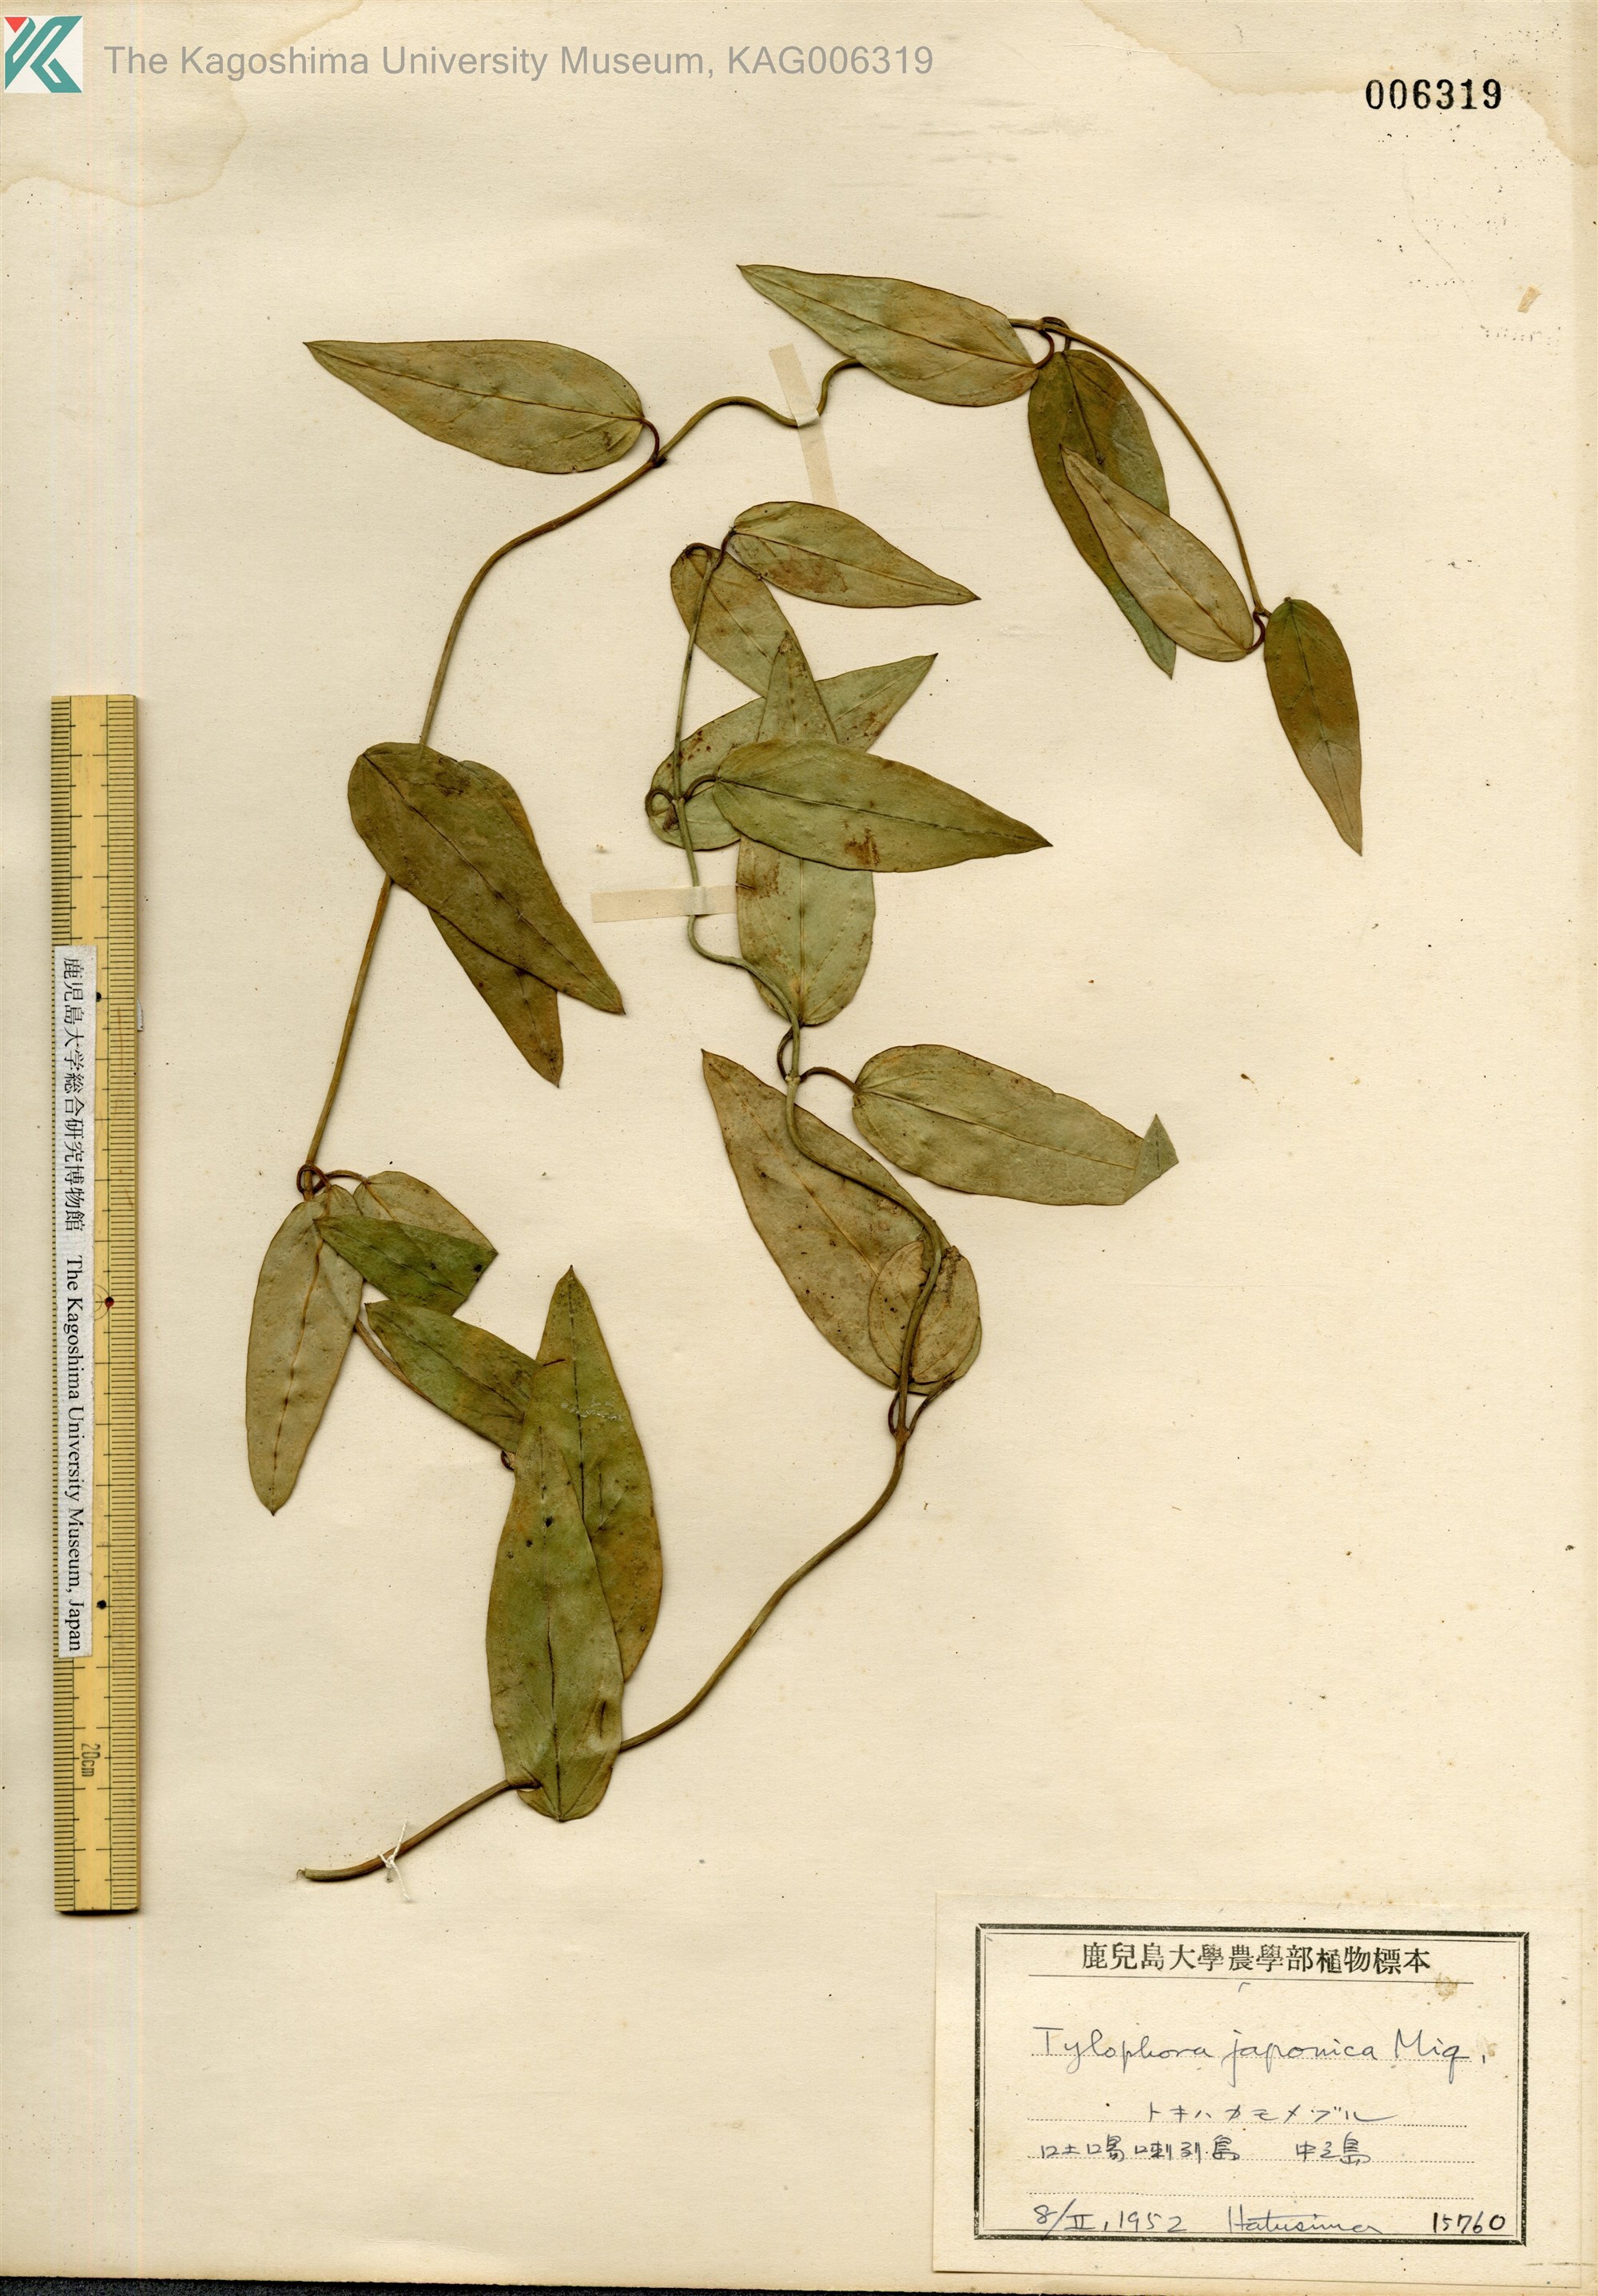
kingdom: Plantae
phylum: Tracheophyta
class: Magnoliopsida
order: Gentianales
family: Apocynaceae
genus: Vincetoxicum
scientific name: Vincetoxicum sieboldii
